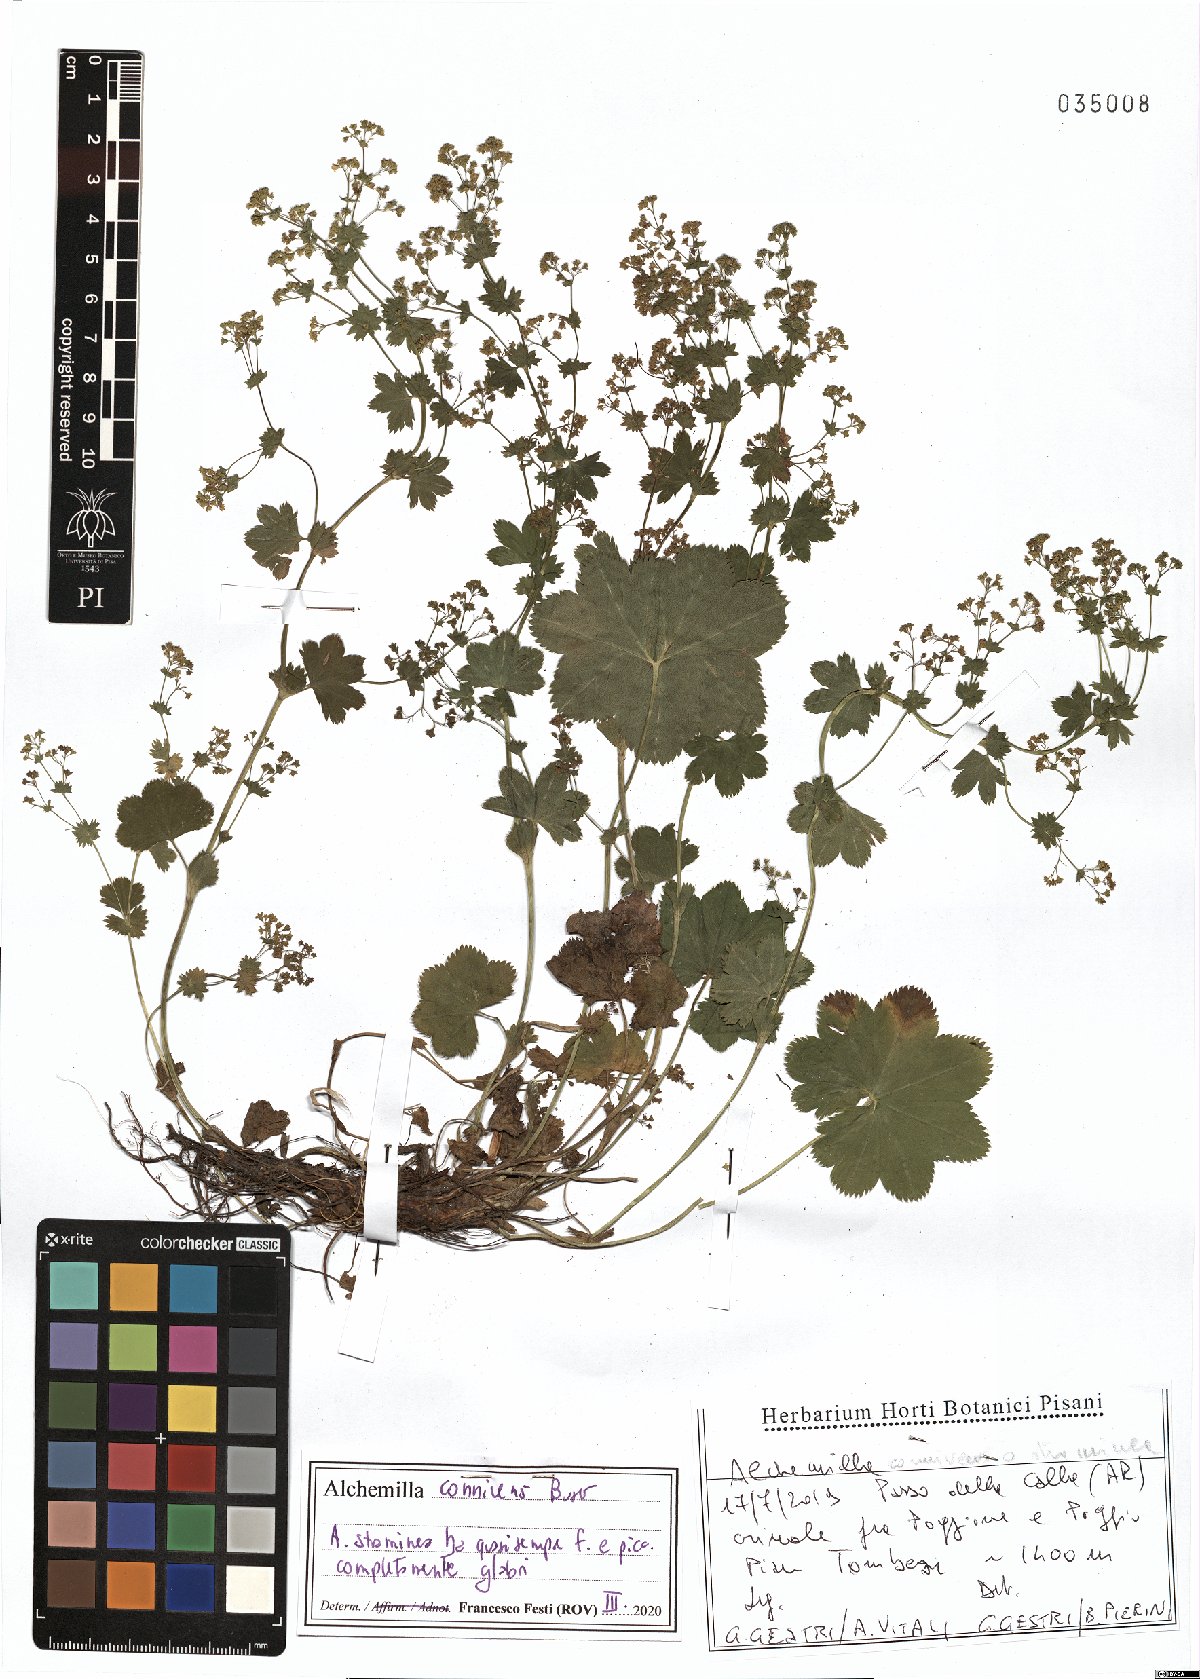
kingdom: Plantae
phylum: Tracheophyta
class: Magnoliopsida
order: Rosales
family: Rosaceae
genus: Alchemilla
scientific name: Alchemilla connivens
